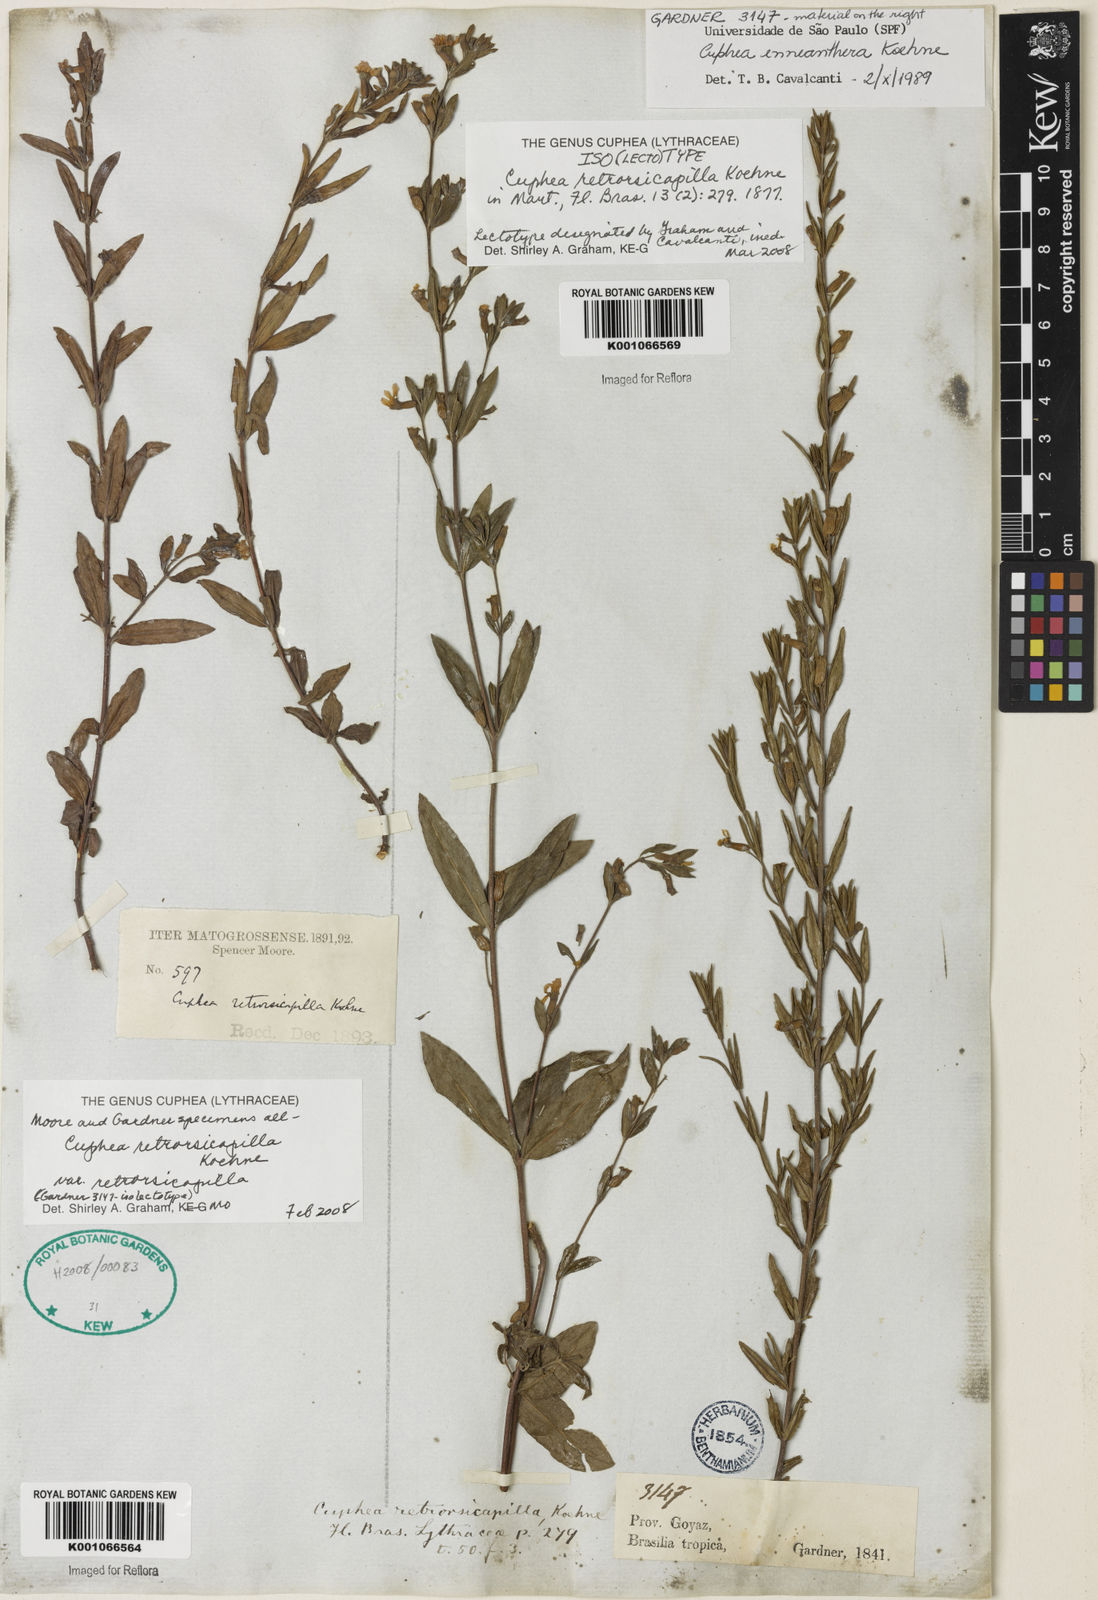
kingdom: Plantae
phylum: Tracheophyta
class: Magnoliopsida
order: Myrtales
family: Lythraceae
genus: Cuphea
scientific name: Cuphea retrorsicapilla
